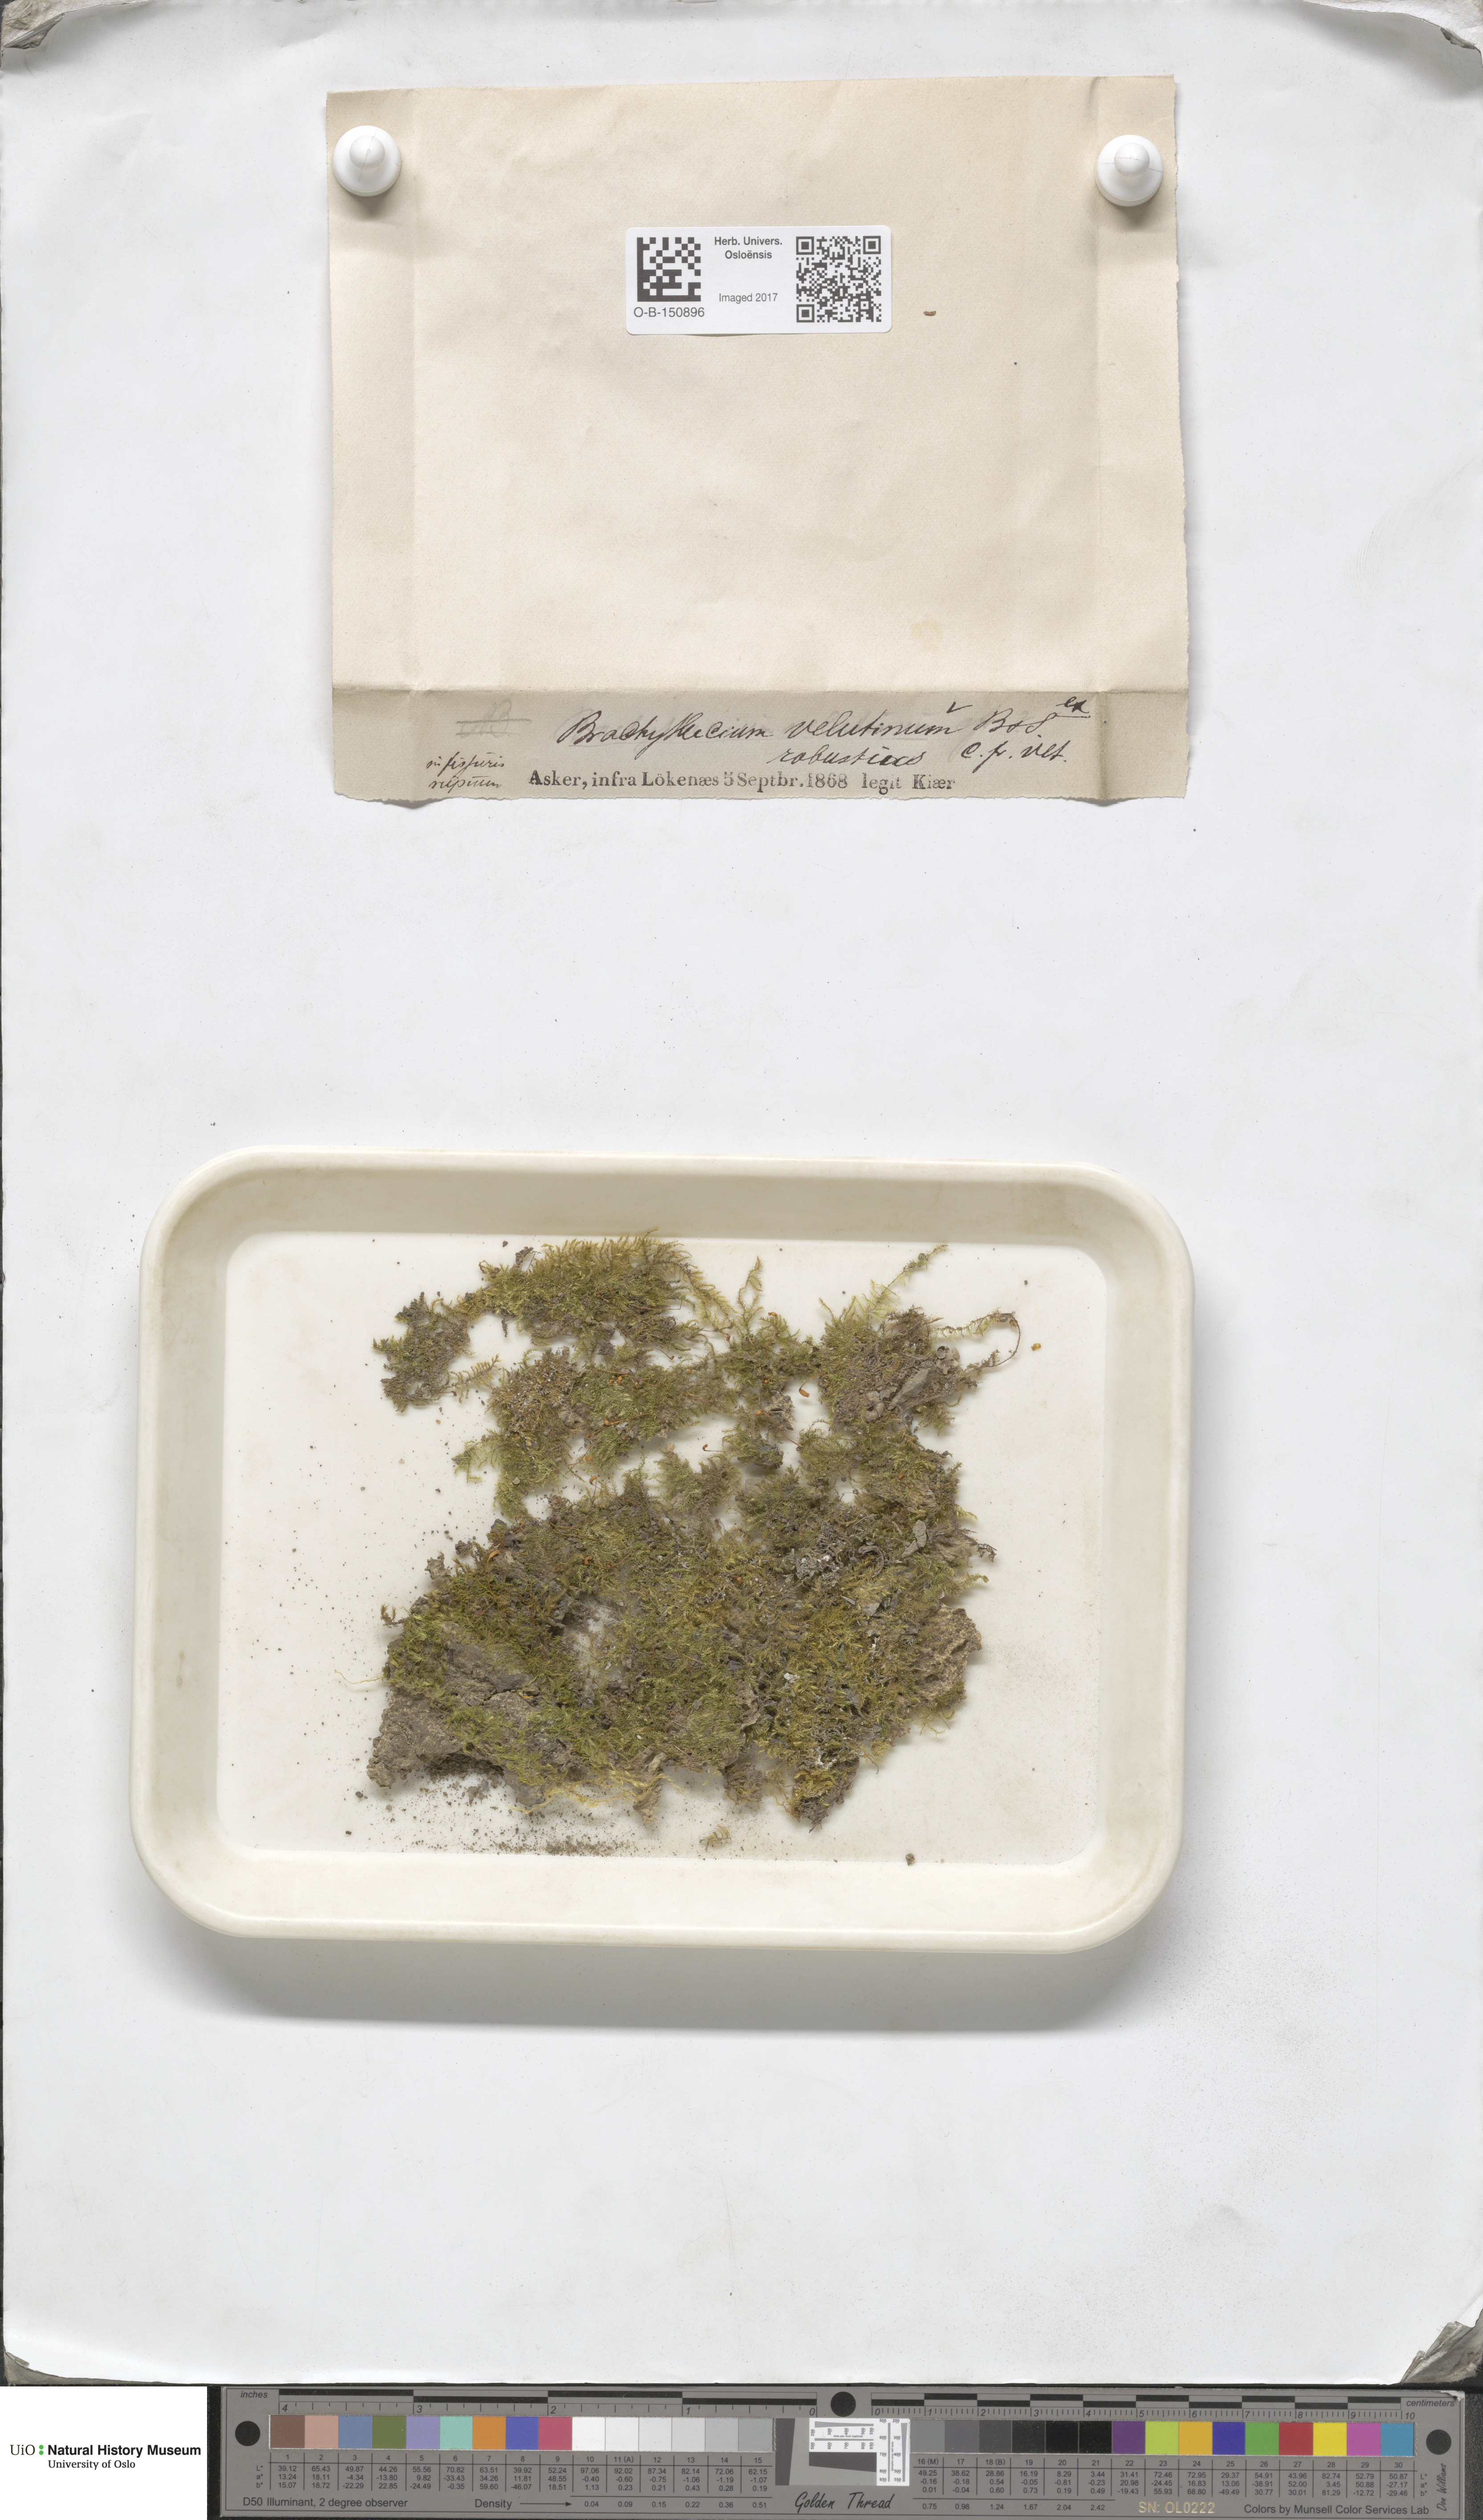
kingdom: Plantae
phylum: Bryophyta
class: Bryopsida
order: Hypnales
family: Brachytheciaceae
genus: Brachytheciastrum
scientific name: Brachytheciastrum velutinum
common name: Velvet feather-moss
